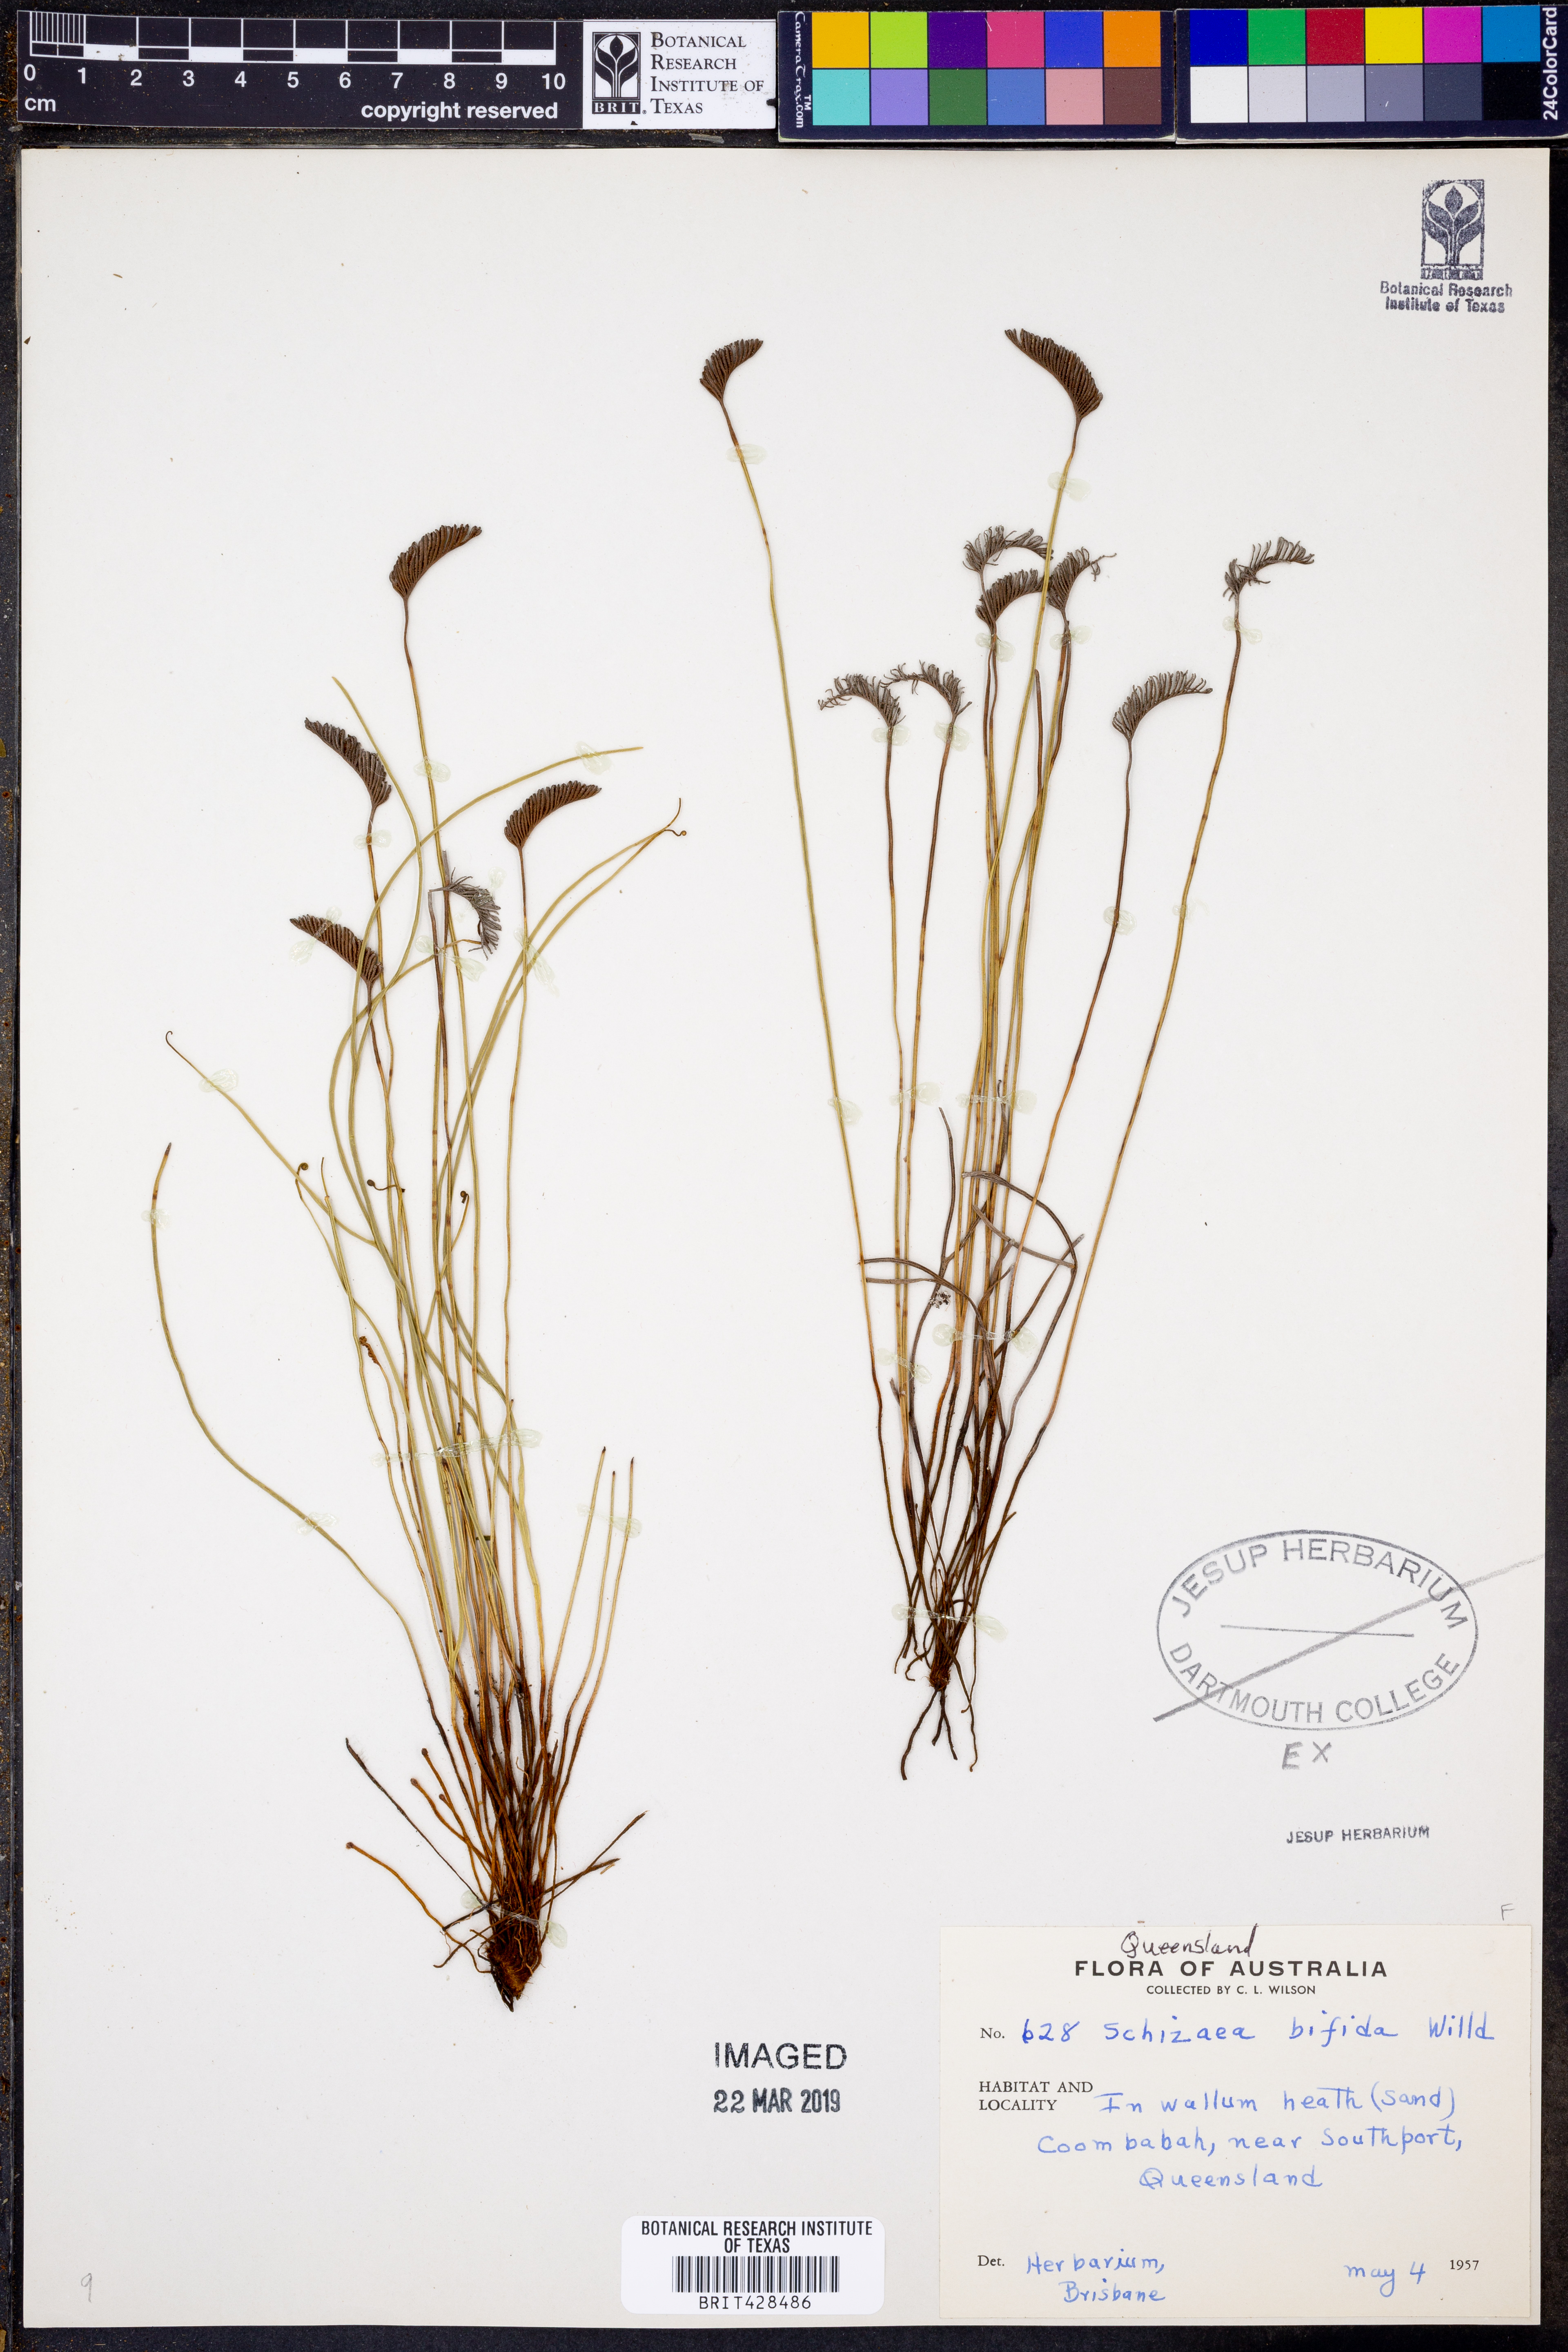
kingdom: Plantae
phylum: Tracheophyta
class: Polypodiopsida
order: Schizaeales
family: Schizaeaceae
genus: Schizaea
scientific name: Schizaea bifida
